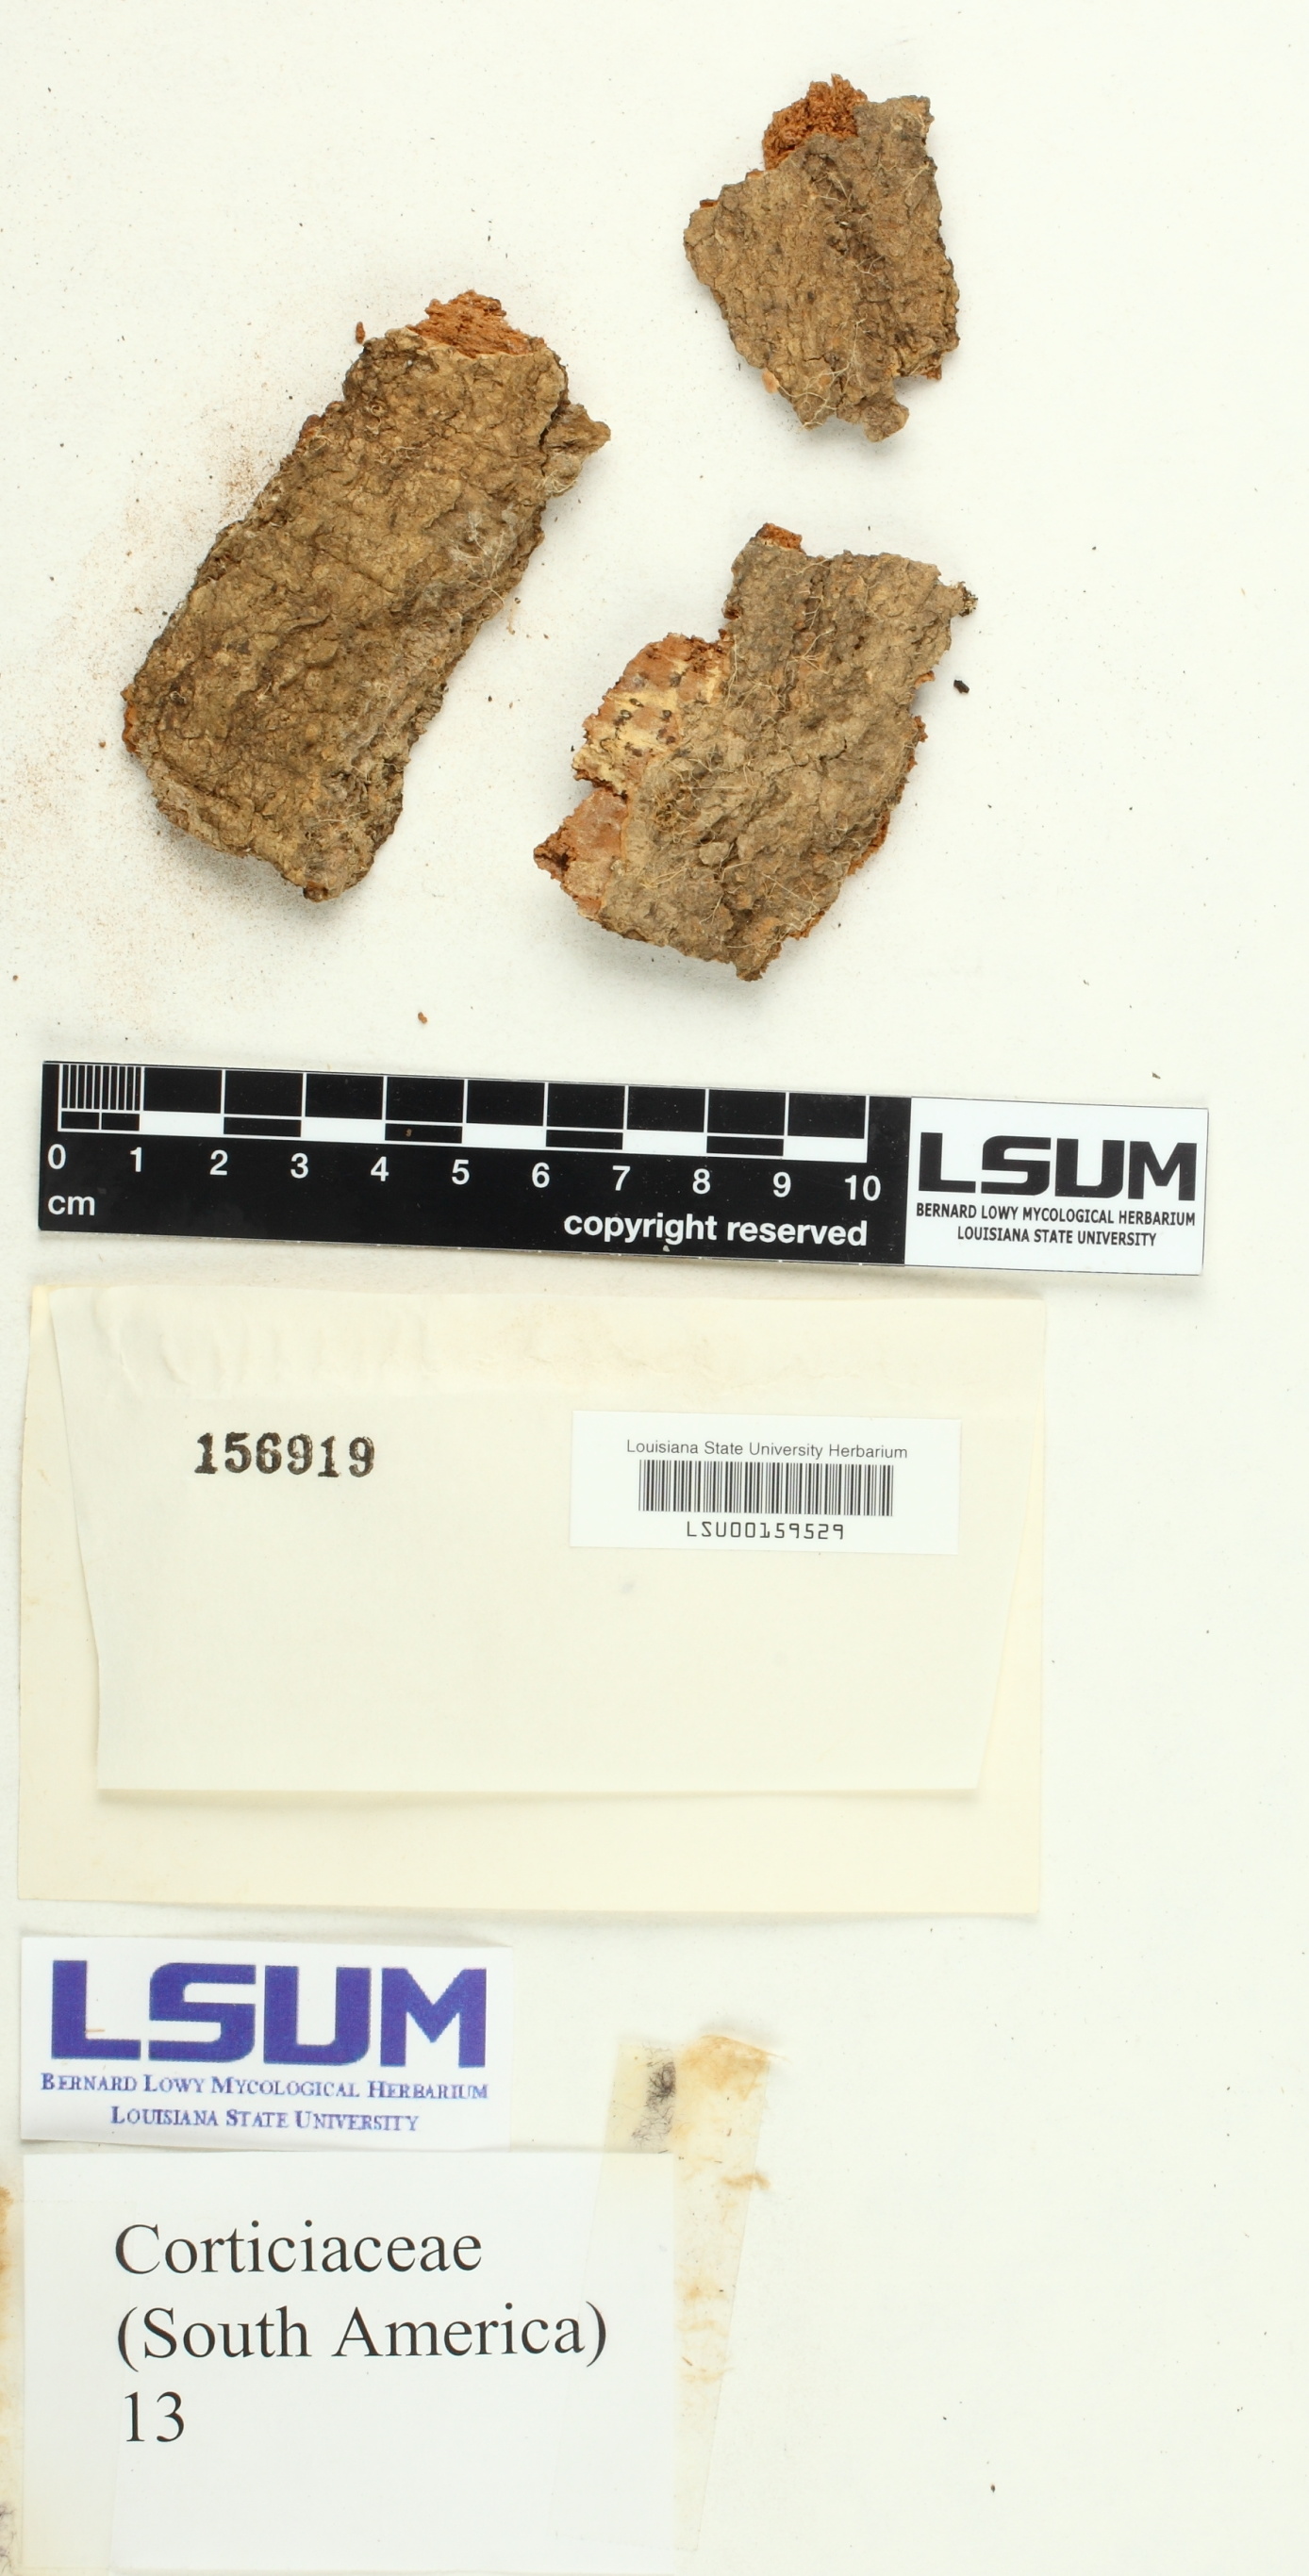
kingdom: Fungi
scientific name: Fungi
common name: Fungi
